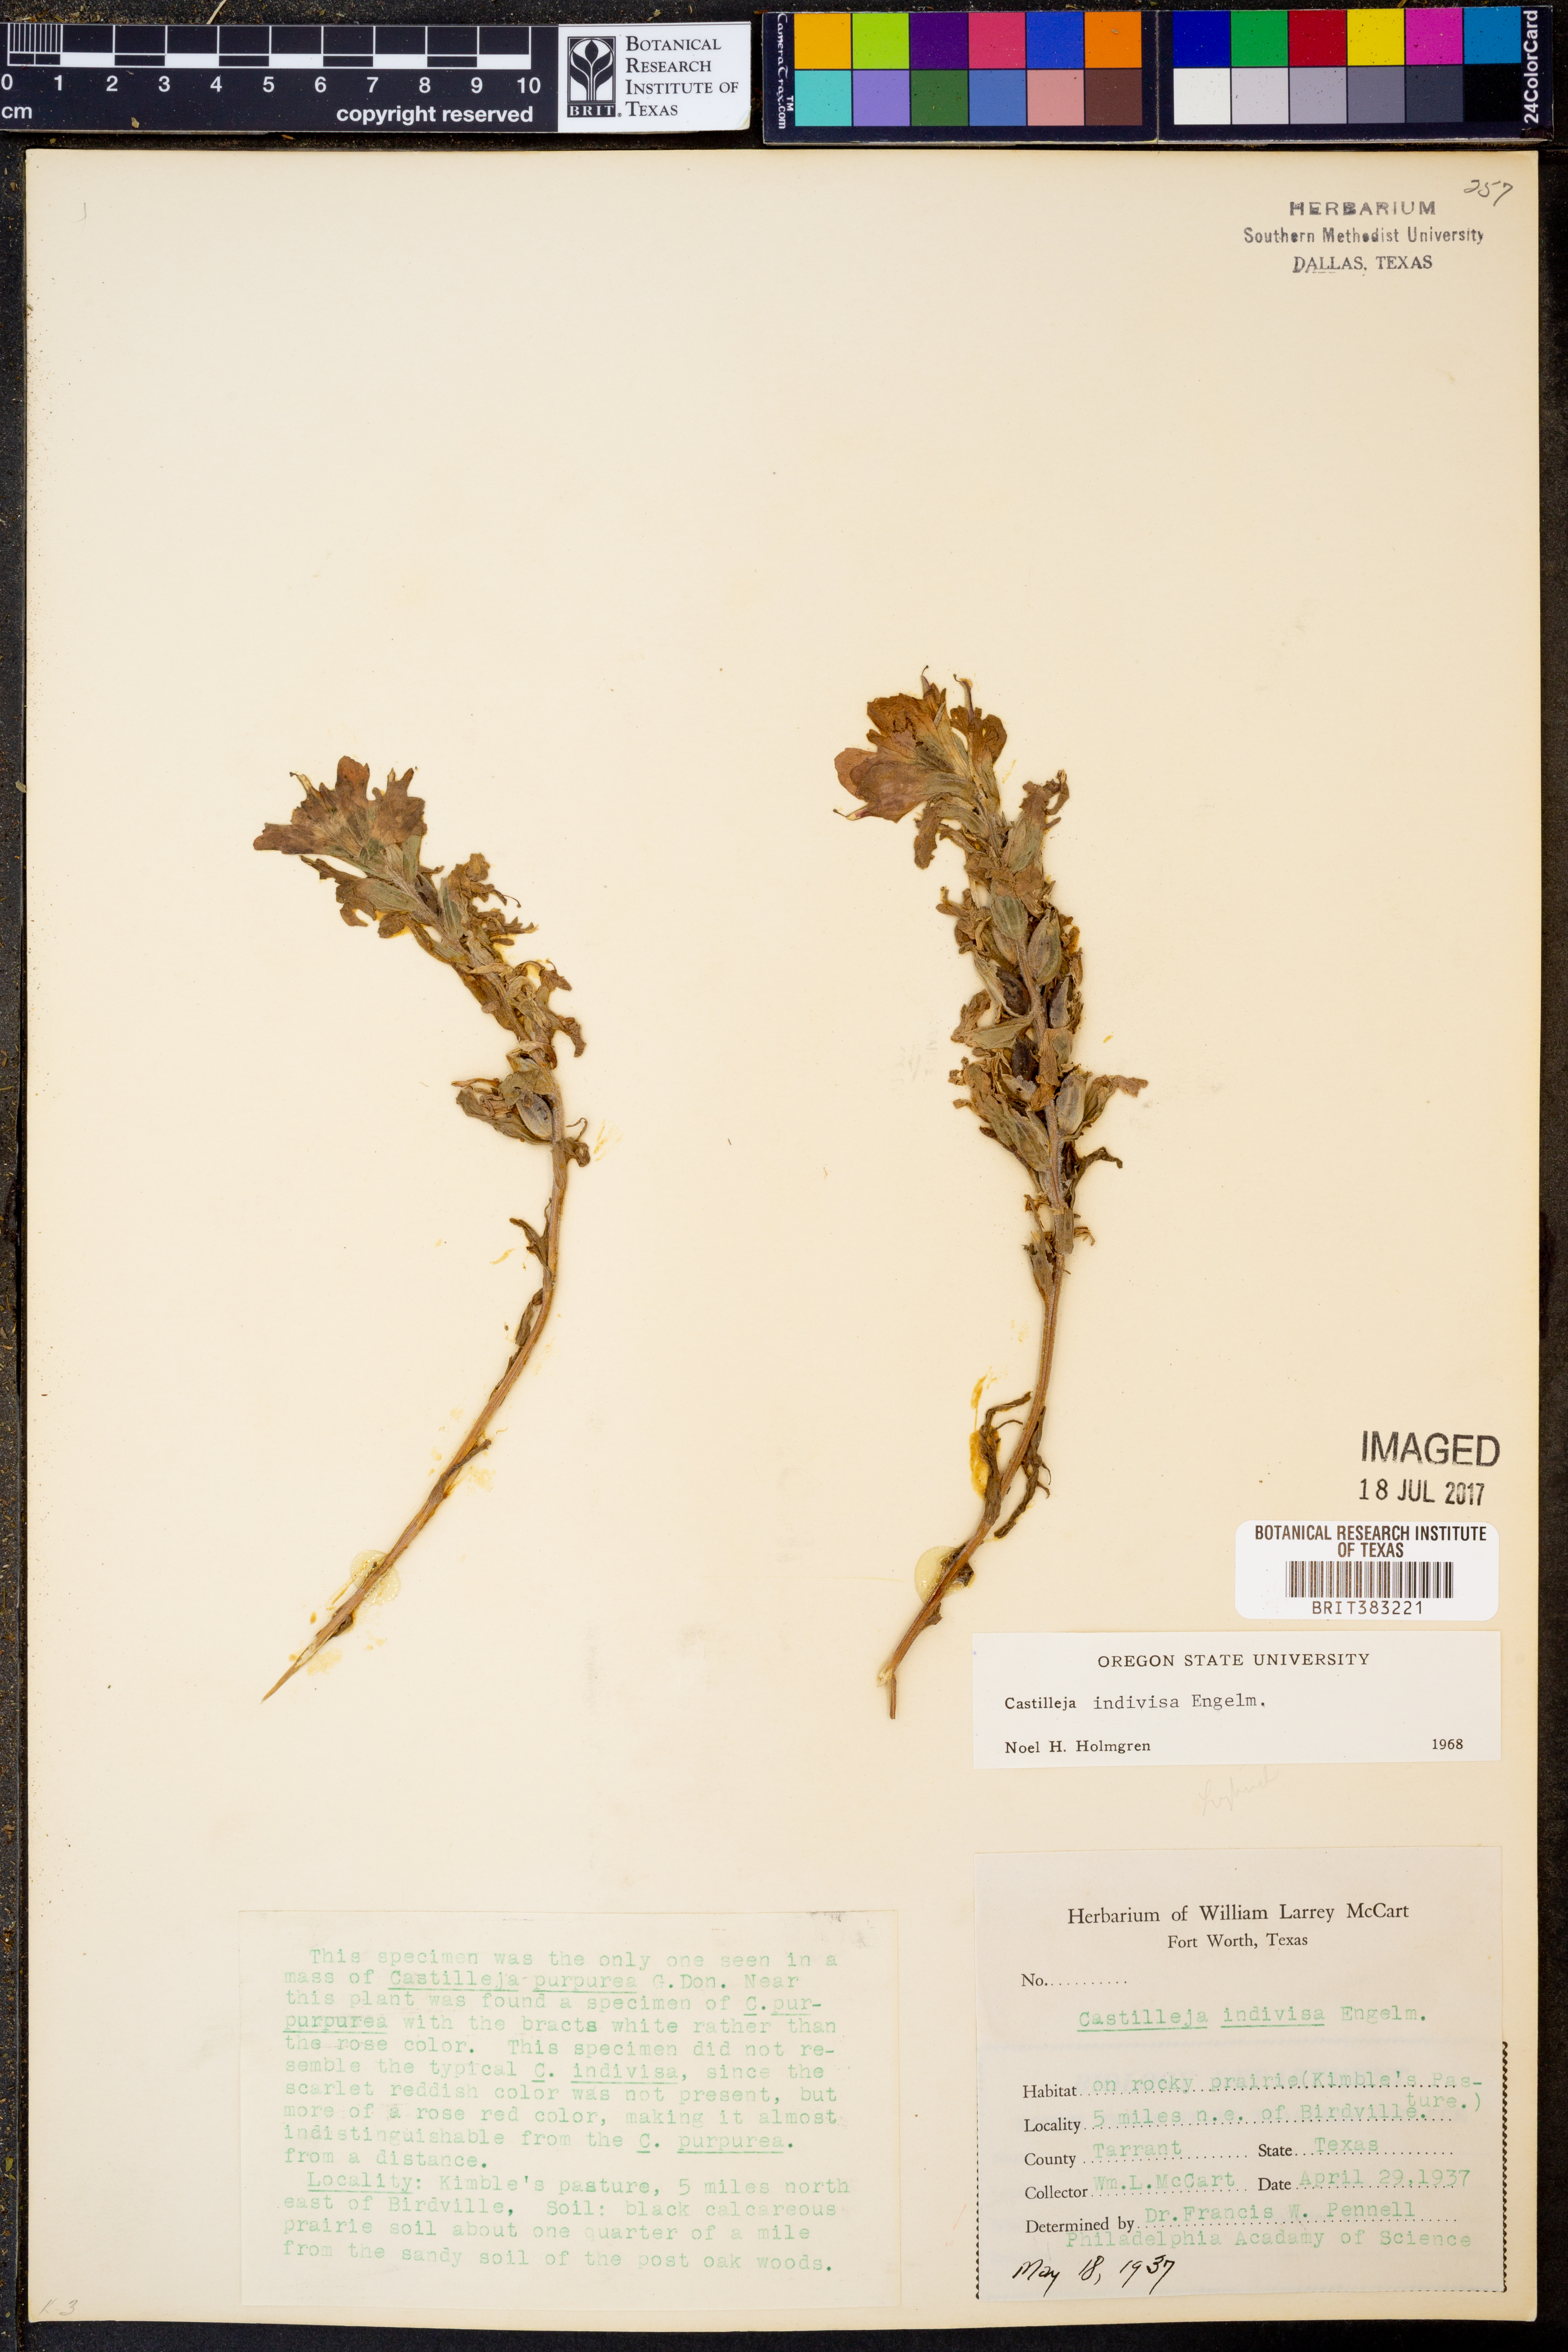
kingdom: Plantae
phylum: Tracheophyta
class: Magnoliopsida
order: Lamiales
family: Orobanchaceae
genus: Castilleja
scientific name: Castilleja indivisa
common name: Texas paintbrush
